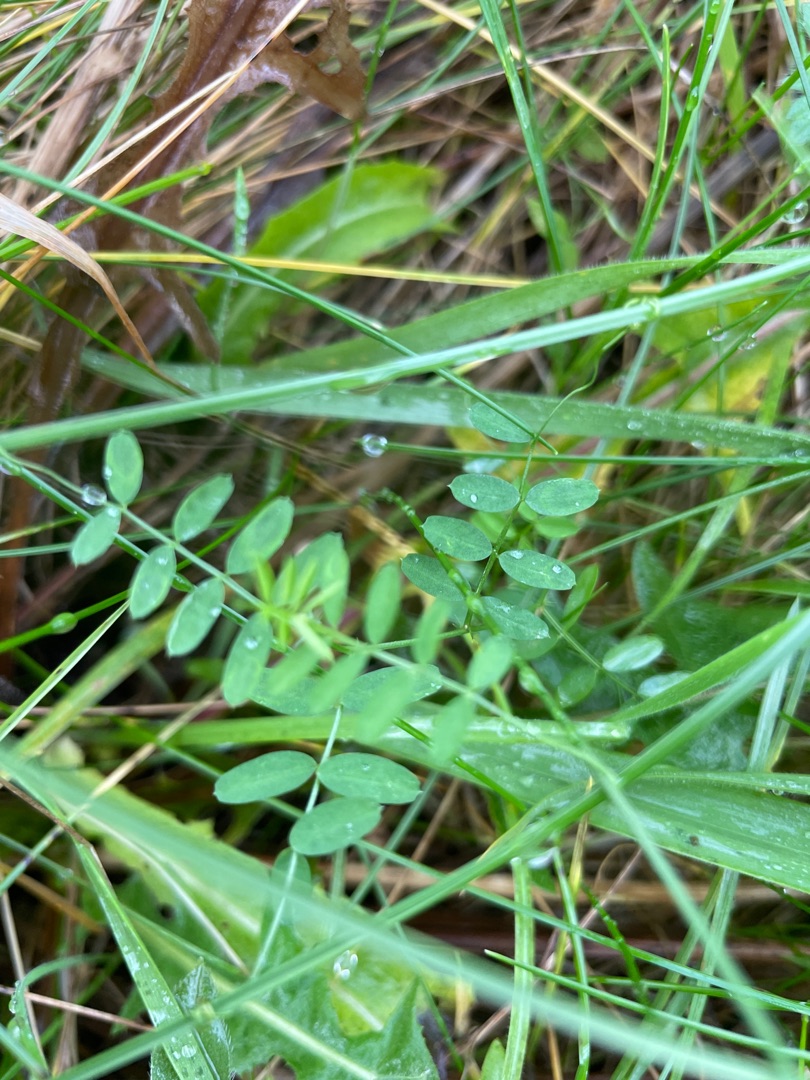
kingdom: Plantae
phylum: Tracheophyta
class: Magnoliopsida
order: Fabales
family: Fabaceae
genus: Vicia
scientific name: Vicia
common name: Vikkeslægten
